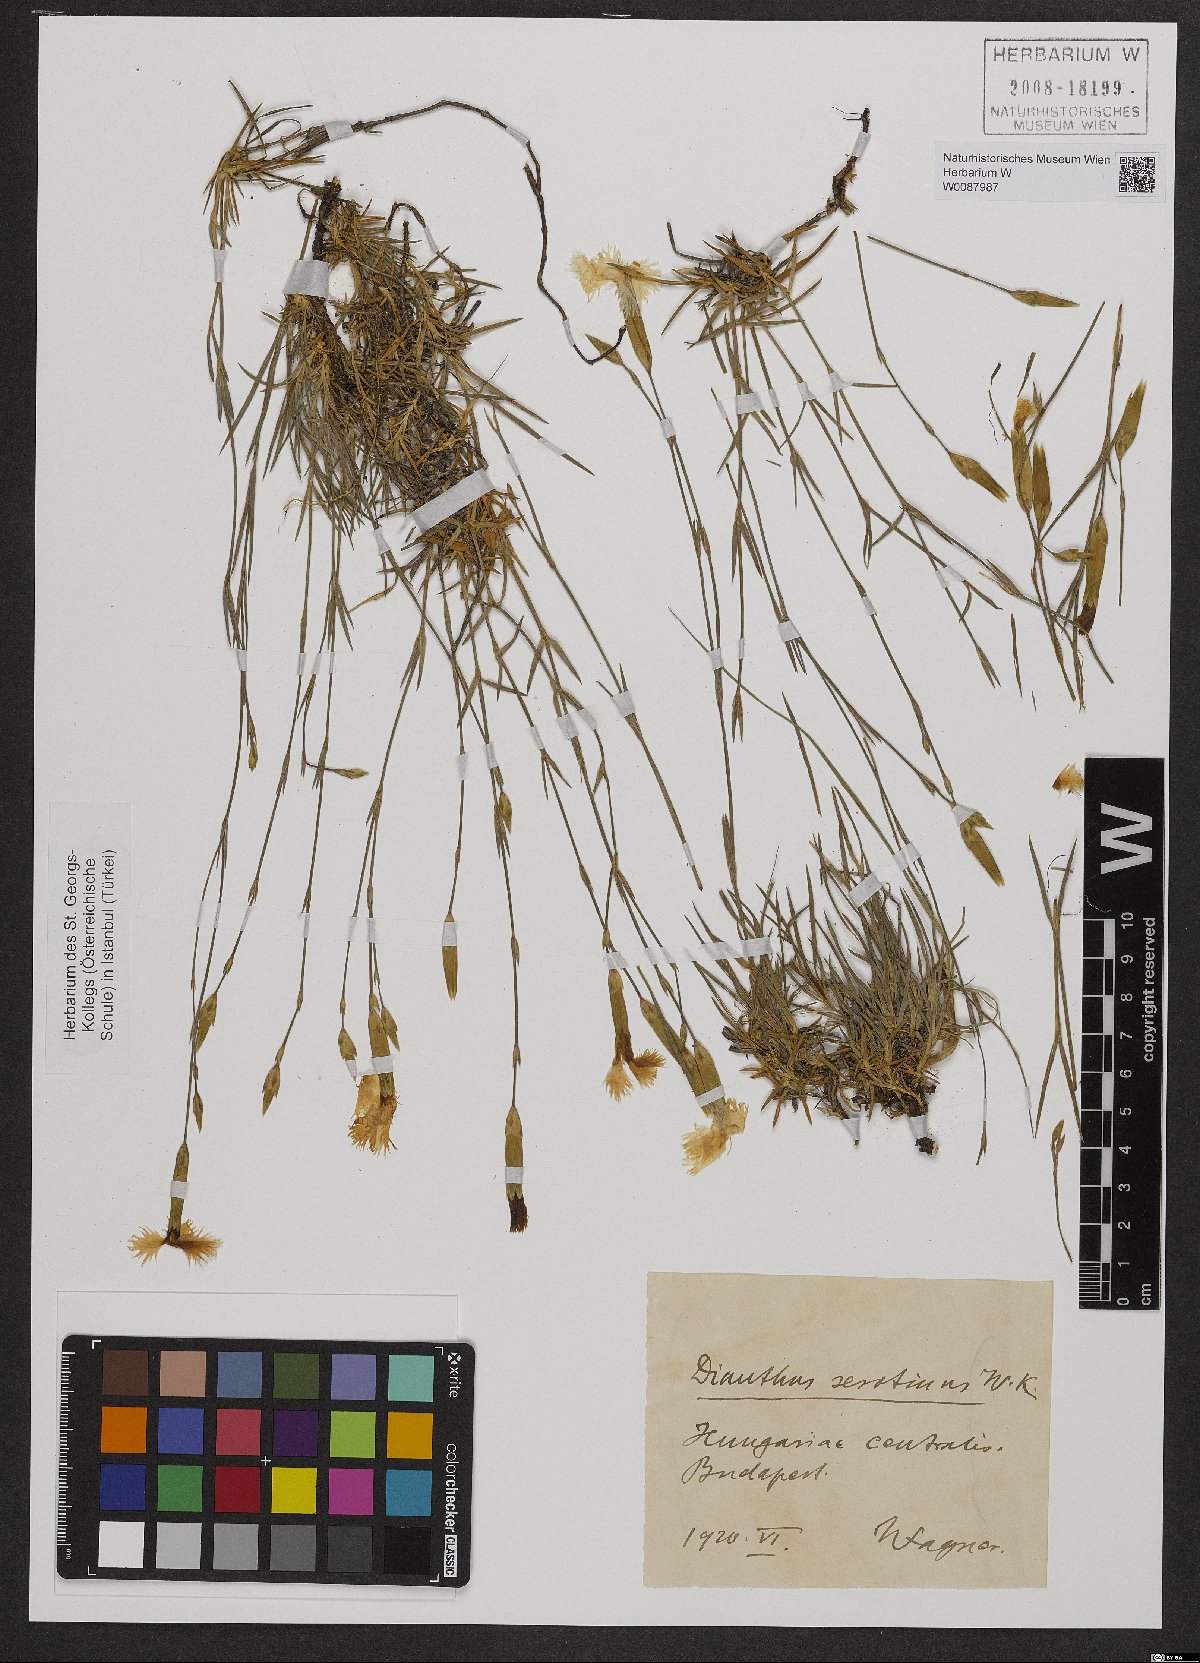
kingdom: Plantae
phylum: Tracheophyta
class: Magnoliopsida
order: Caryophyllales
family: Caryophyllaceae
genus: Dianthus
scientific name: Dianthus serotinus
